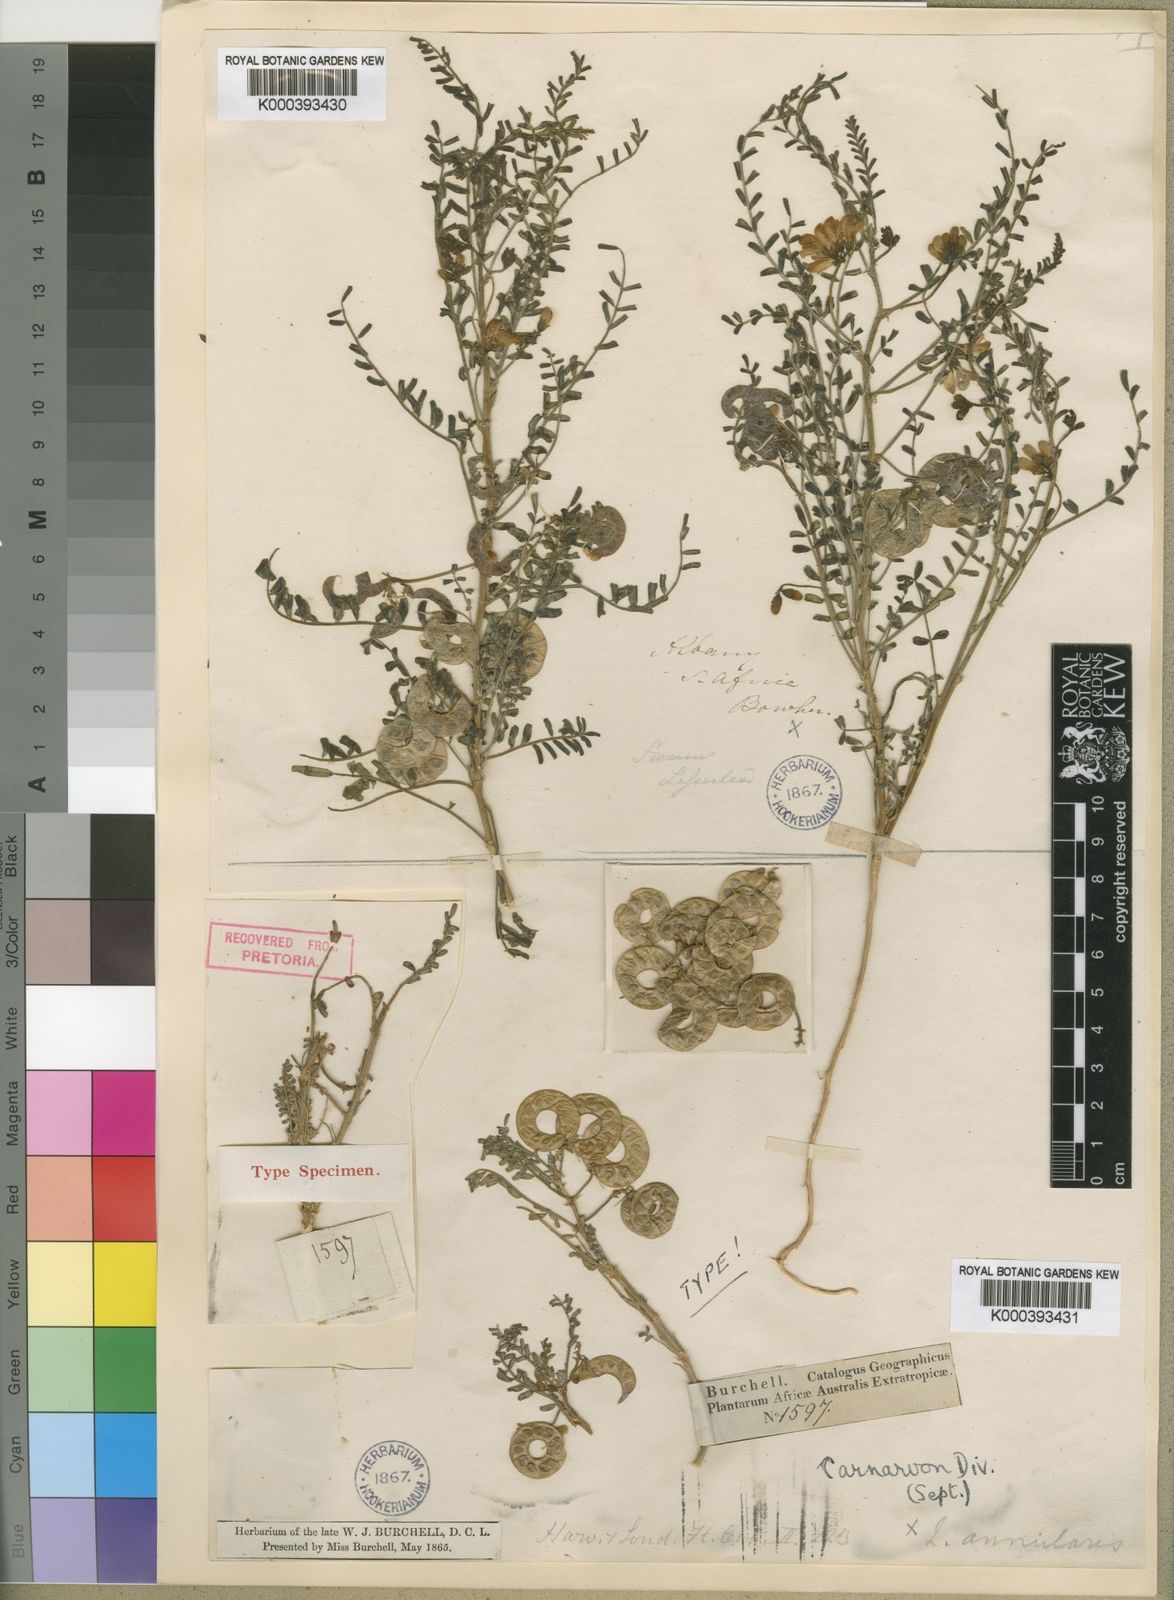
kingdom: Plantae
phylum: Tracheophyta
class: Magnoliopsida
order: Fabales
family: Fabaceae
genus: Lessertia
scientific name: Lessertia annularis
